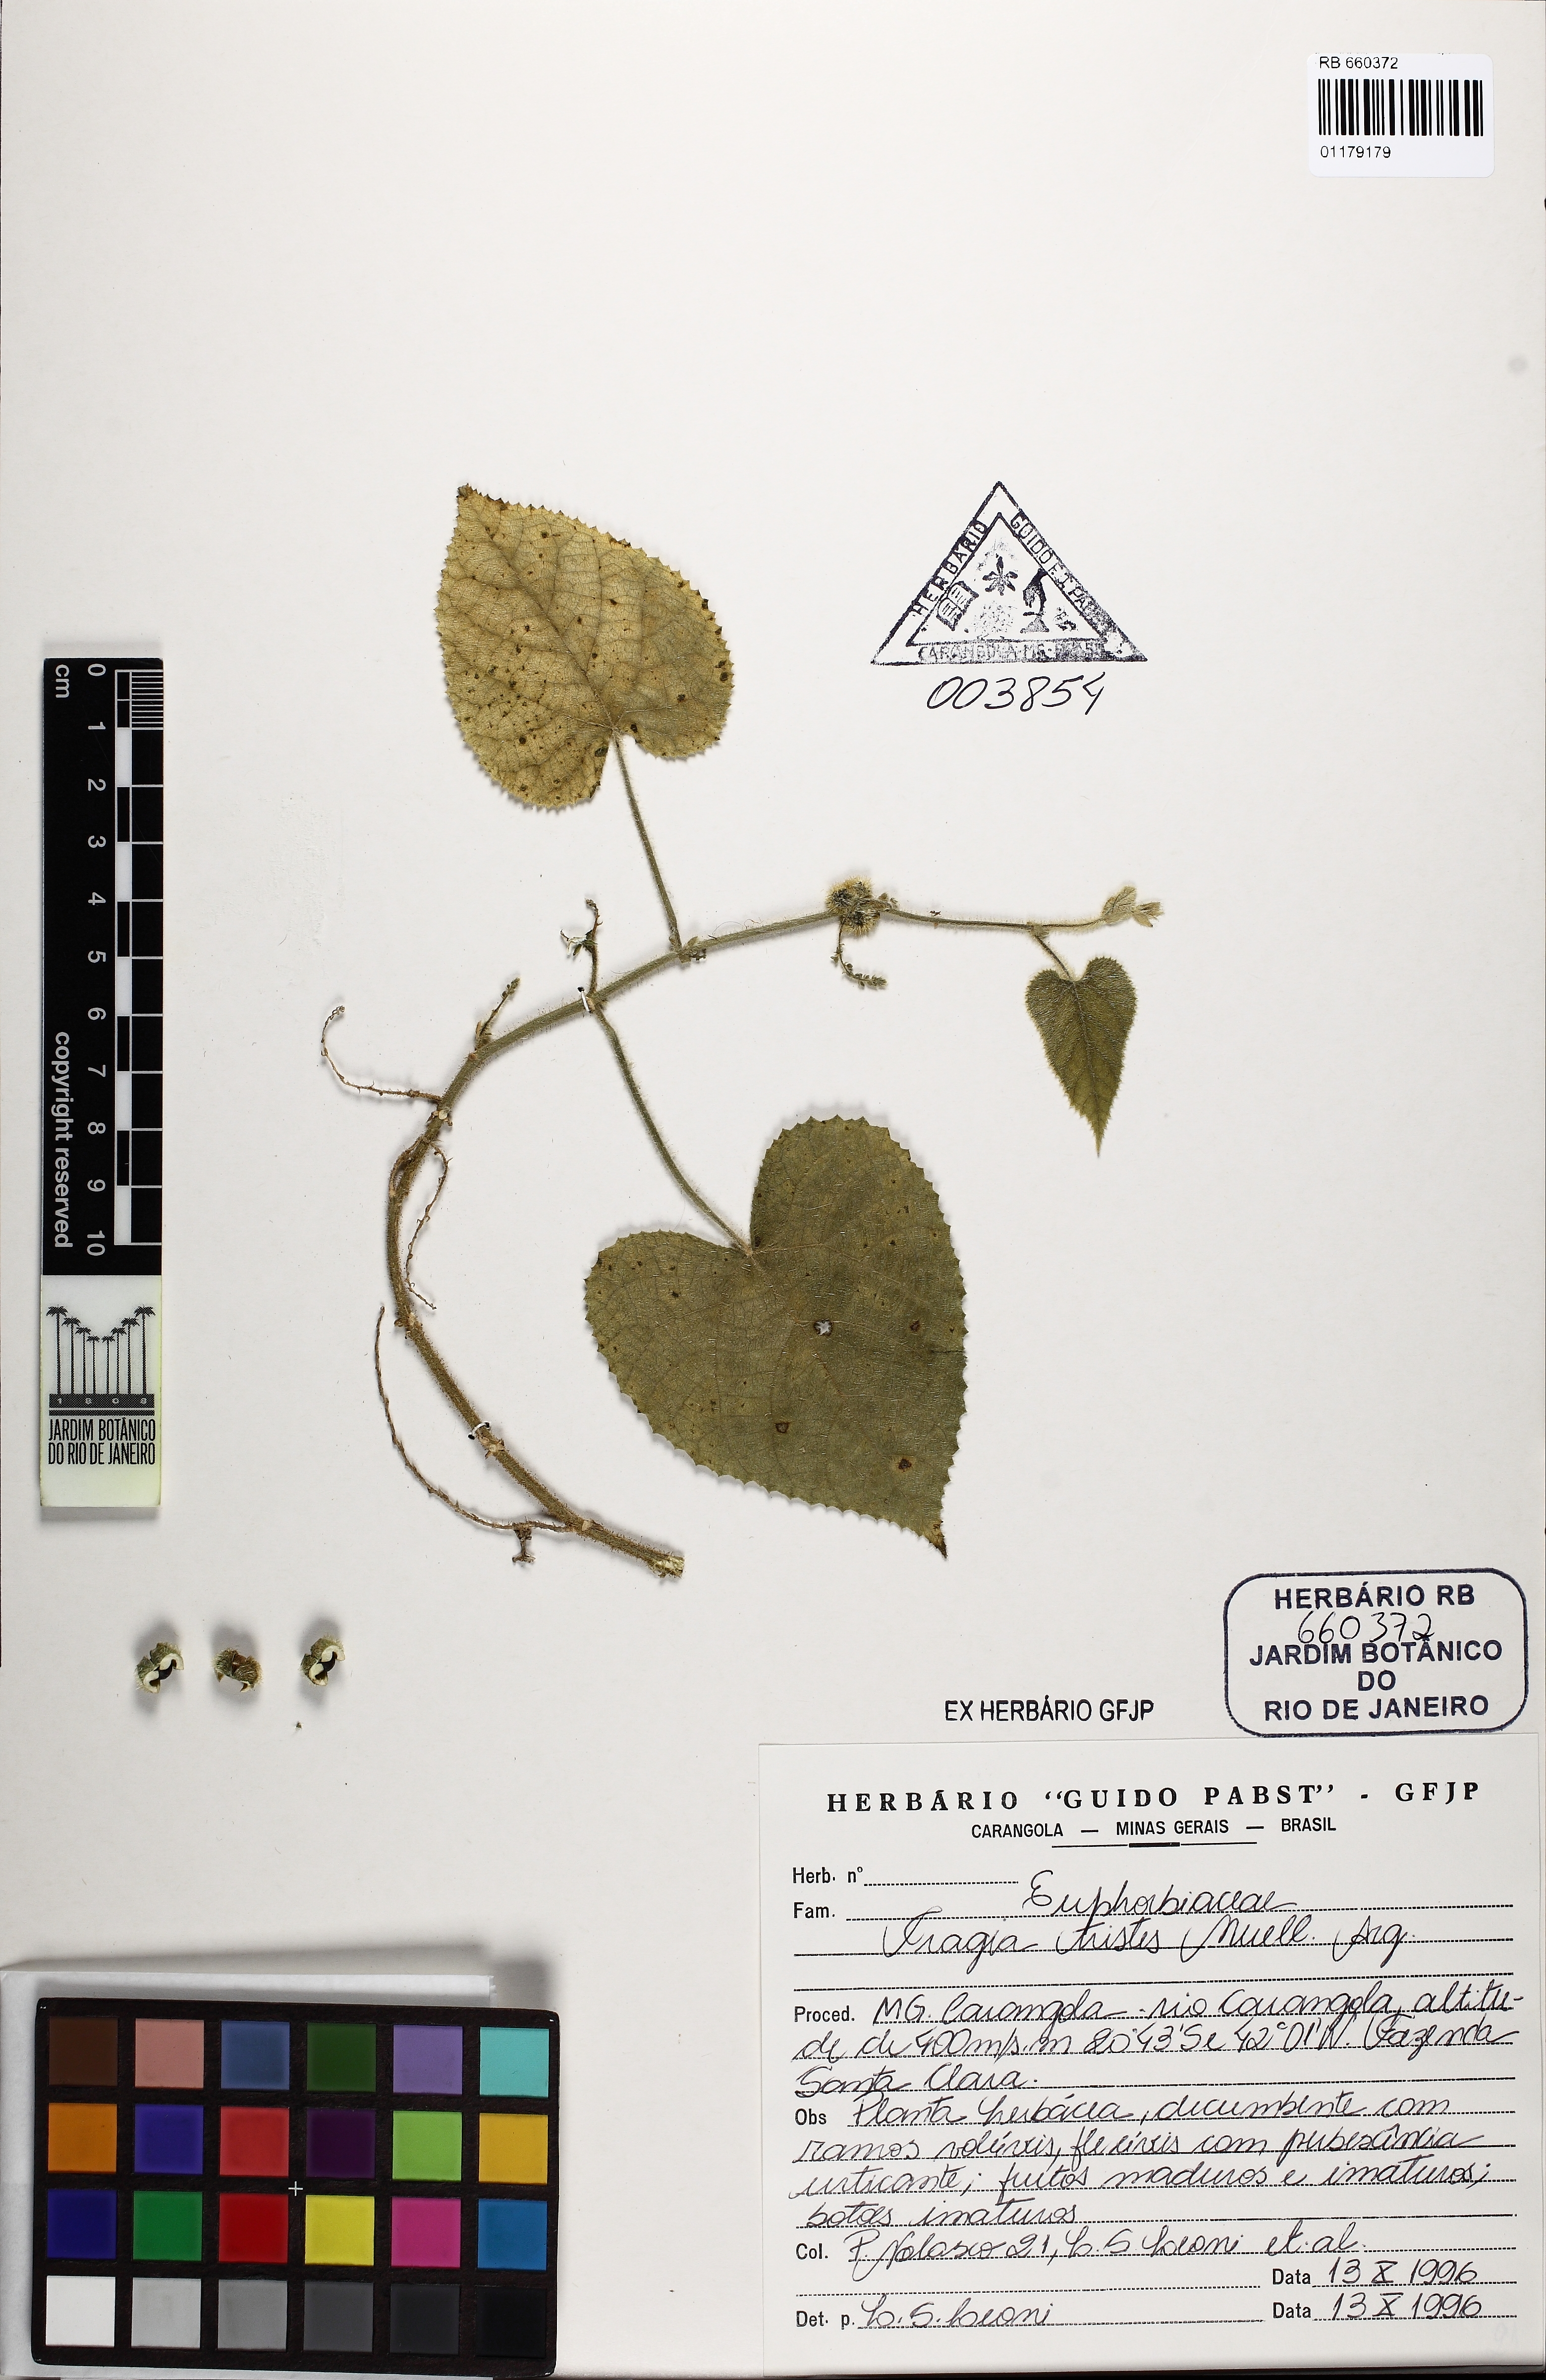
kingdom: Plantae
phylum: Tracheophyta
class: Magnoliopsida
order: Malpighiales
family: Euphorbiaceae
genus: Tragia
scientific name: Tragia chlorocaulon
